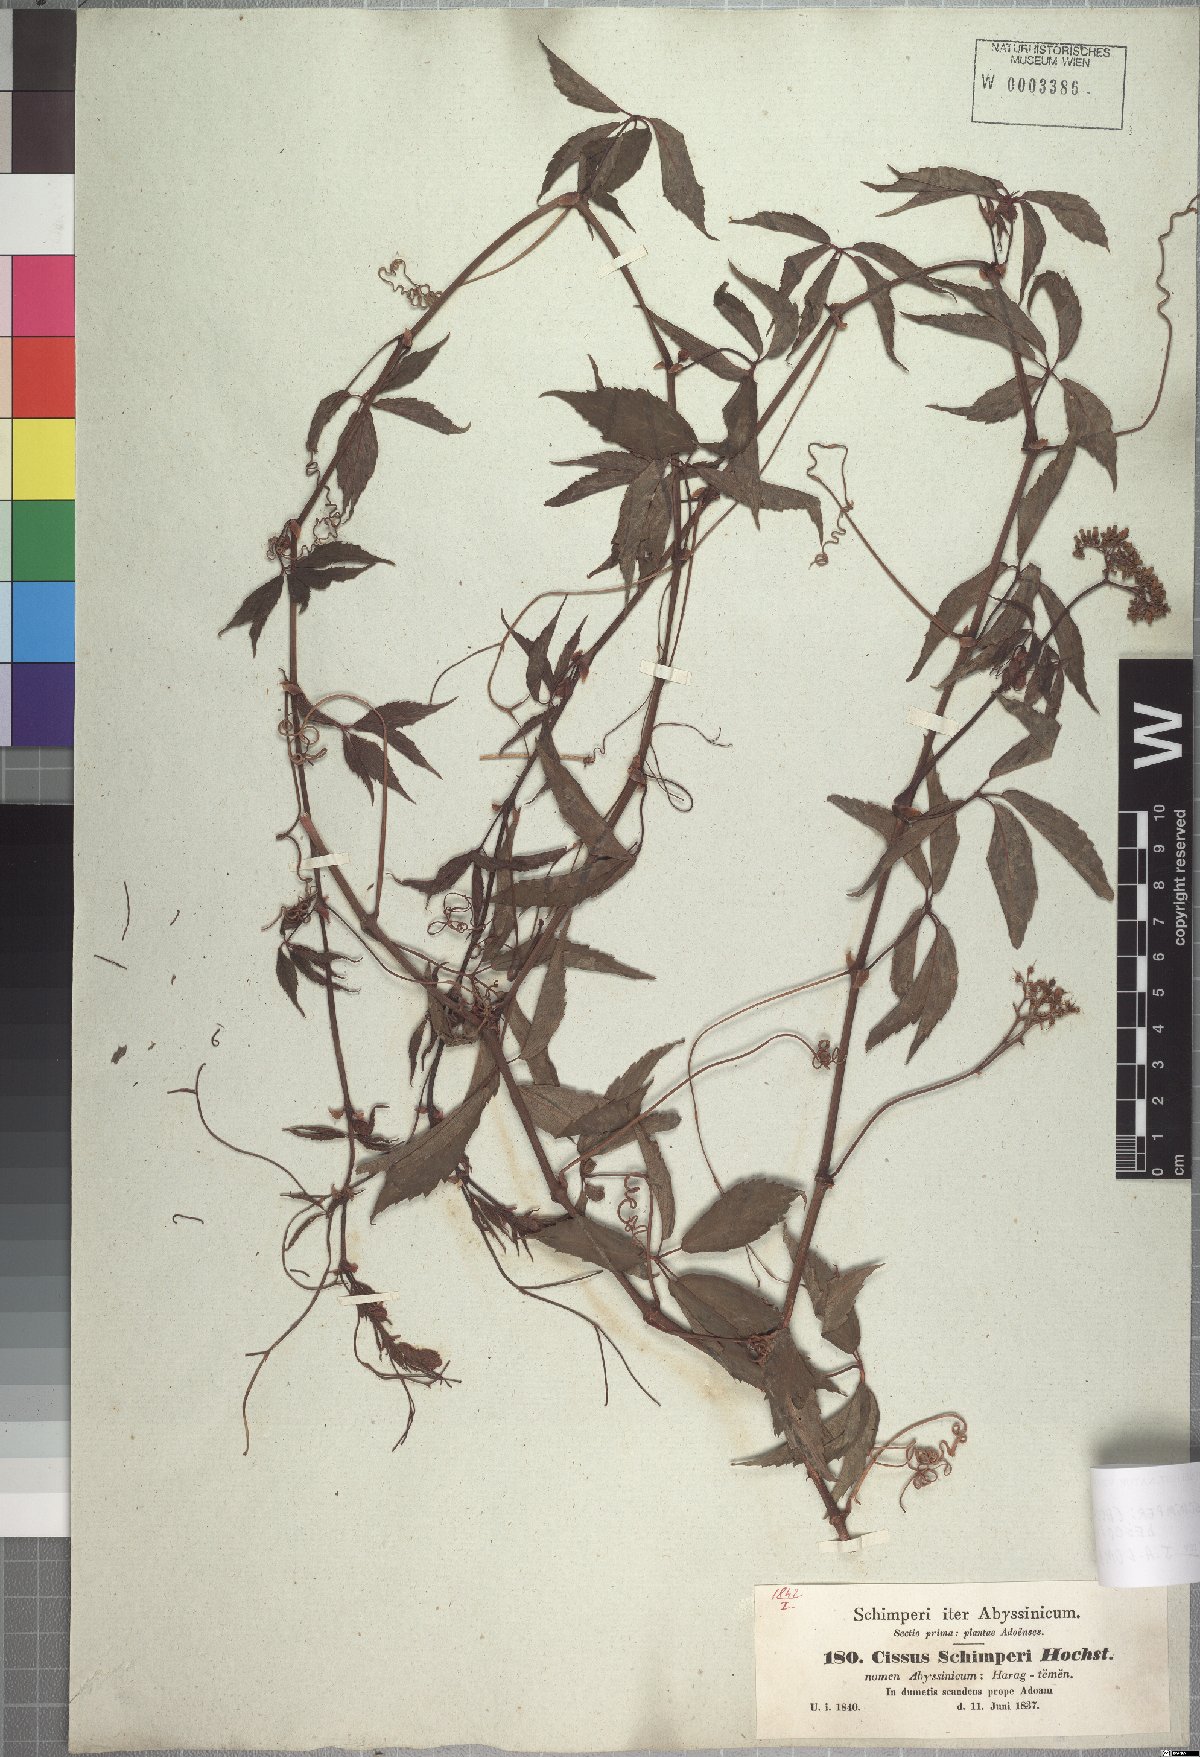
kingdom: Plantae
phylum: Tracheophyta
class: Magnoliopsida
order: Vitales
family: Vitaceae
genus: Cyphostemma
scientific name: Cyphostemma oxyphyllum
